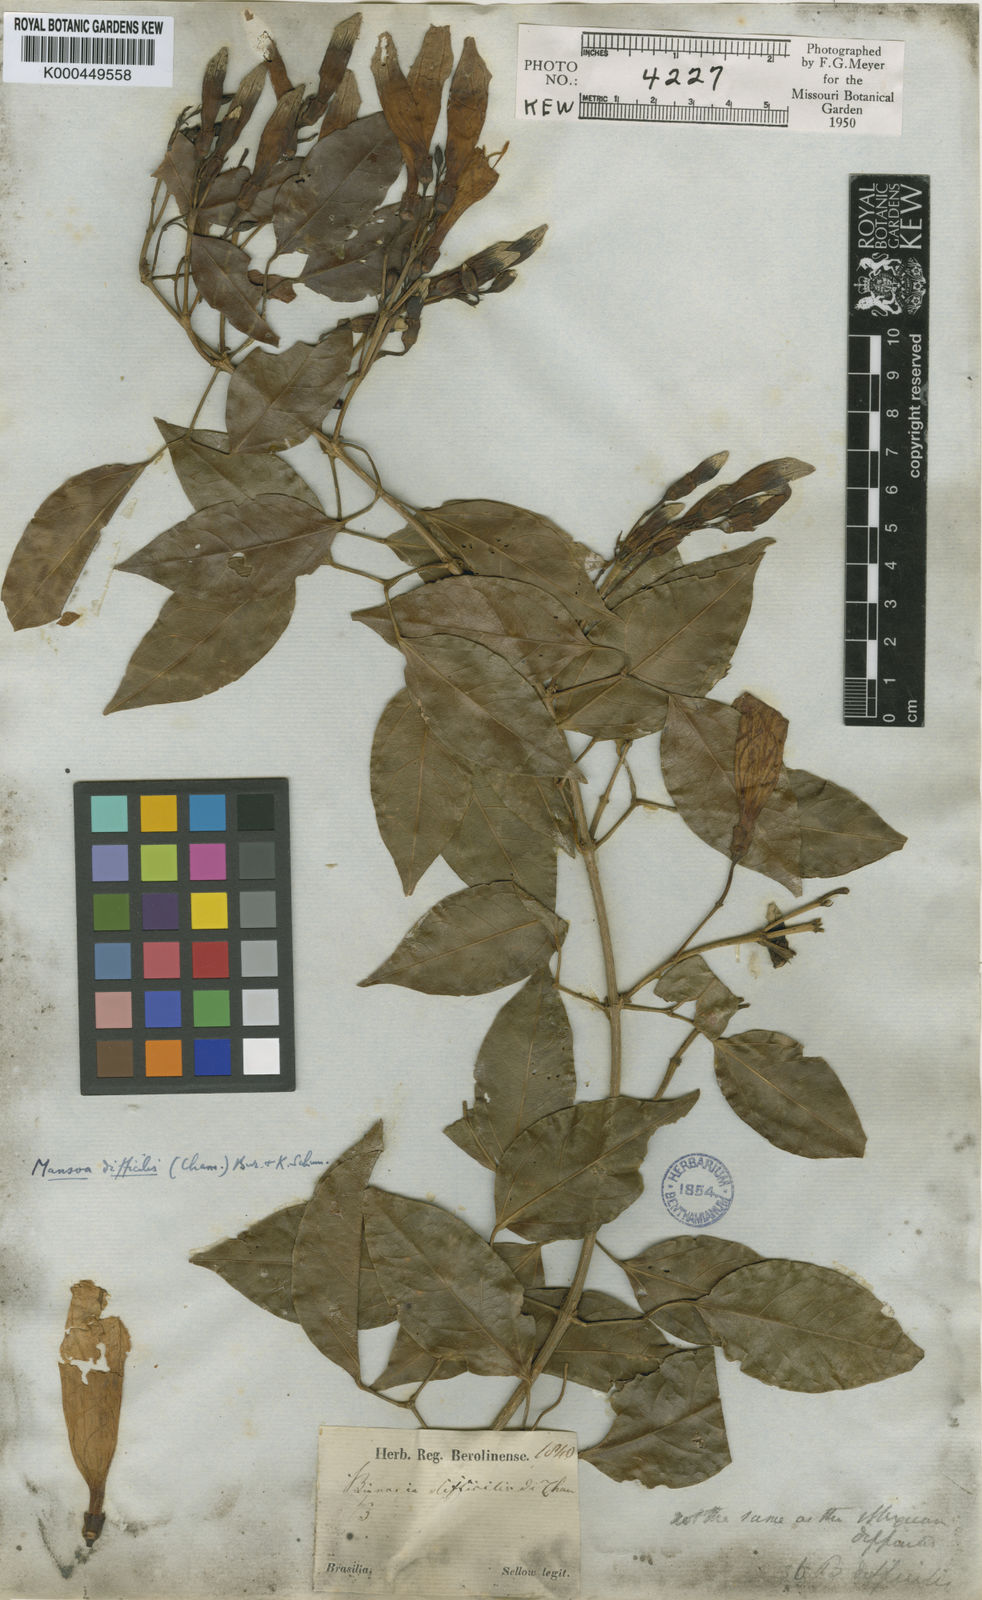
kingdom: Plantae
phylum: Tracheophyta
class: Magnoliopsida
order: Lamiales
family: Bignoniaceae
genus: Mansoa
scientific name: Mansoa difficilis
